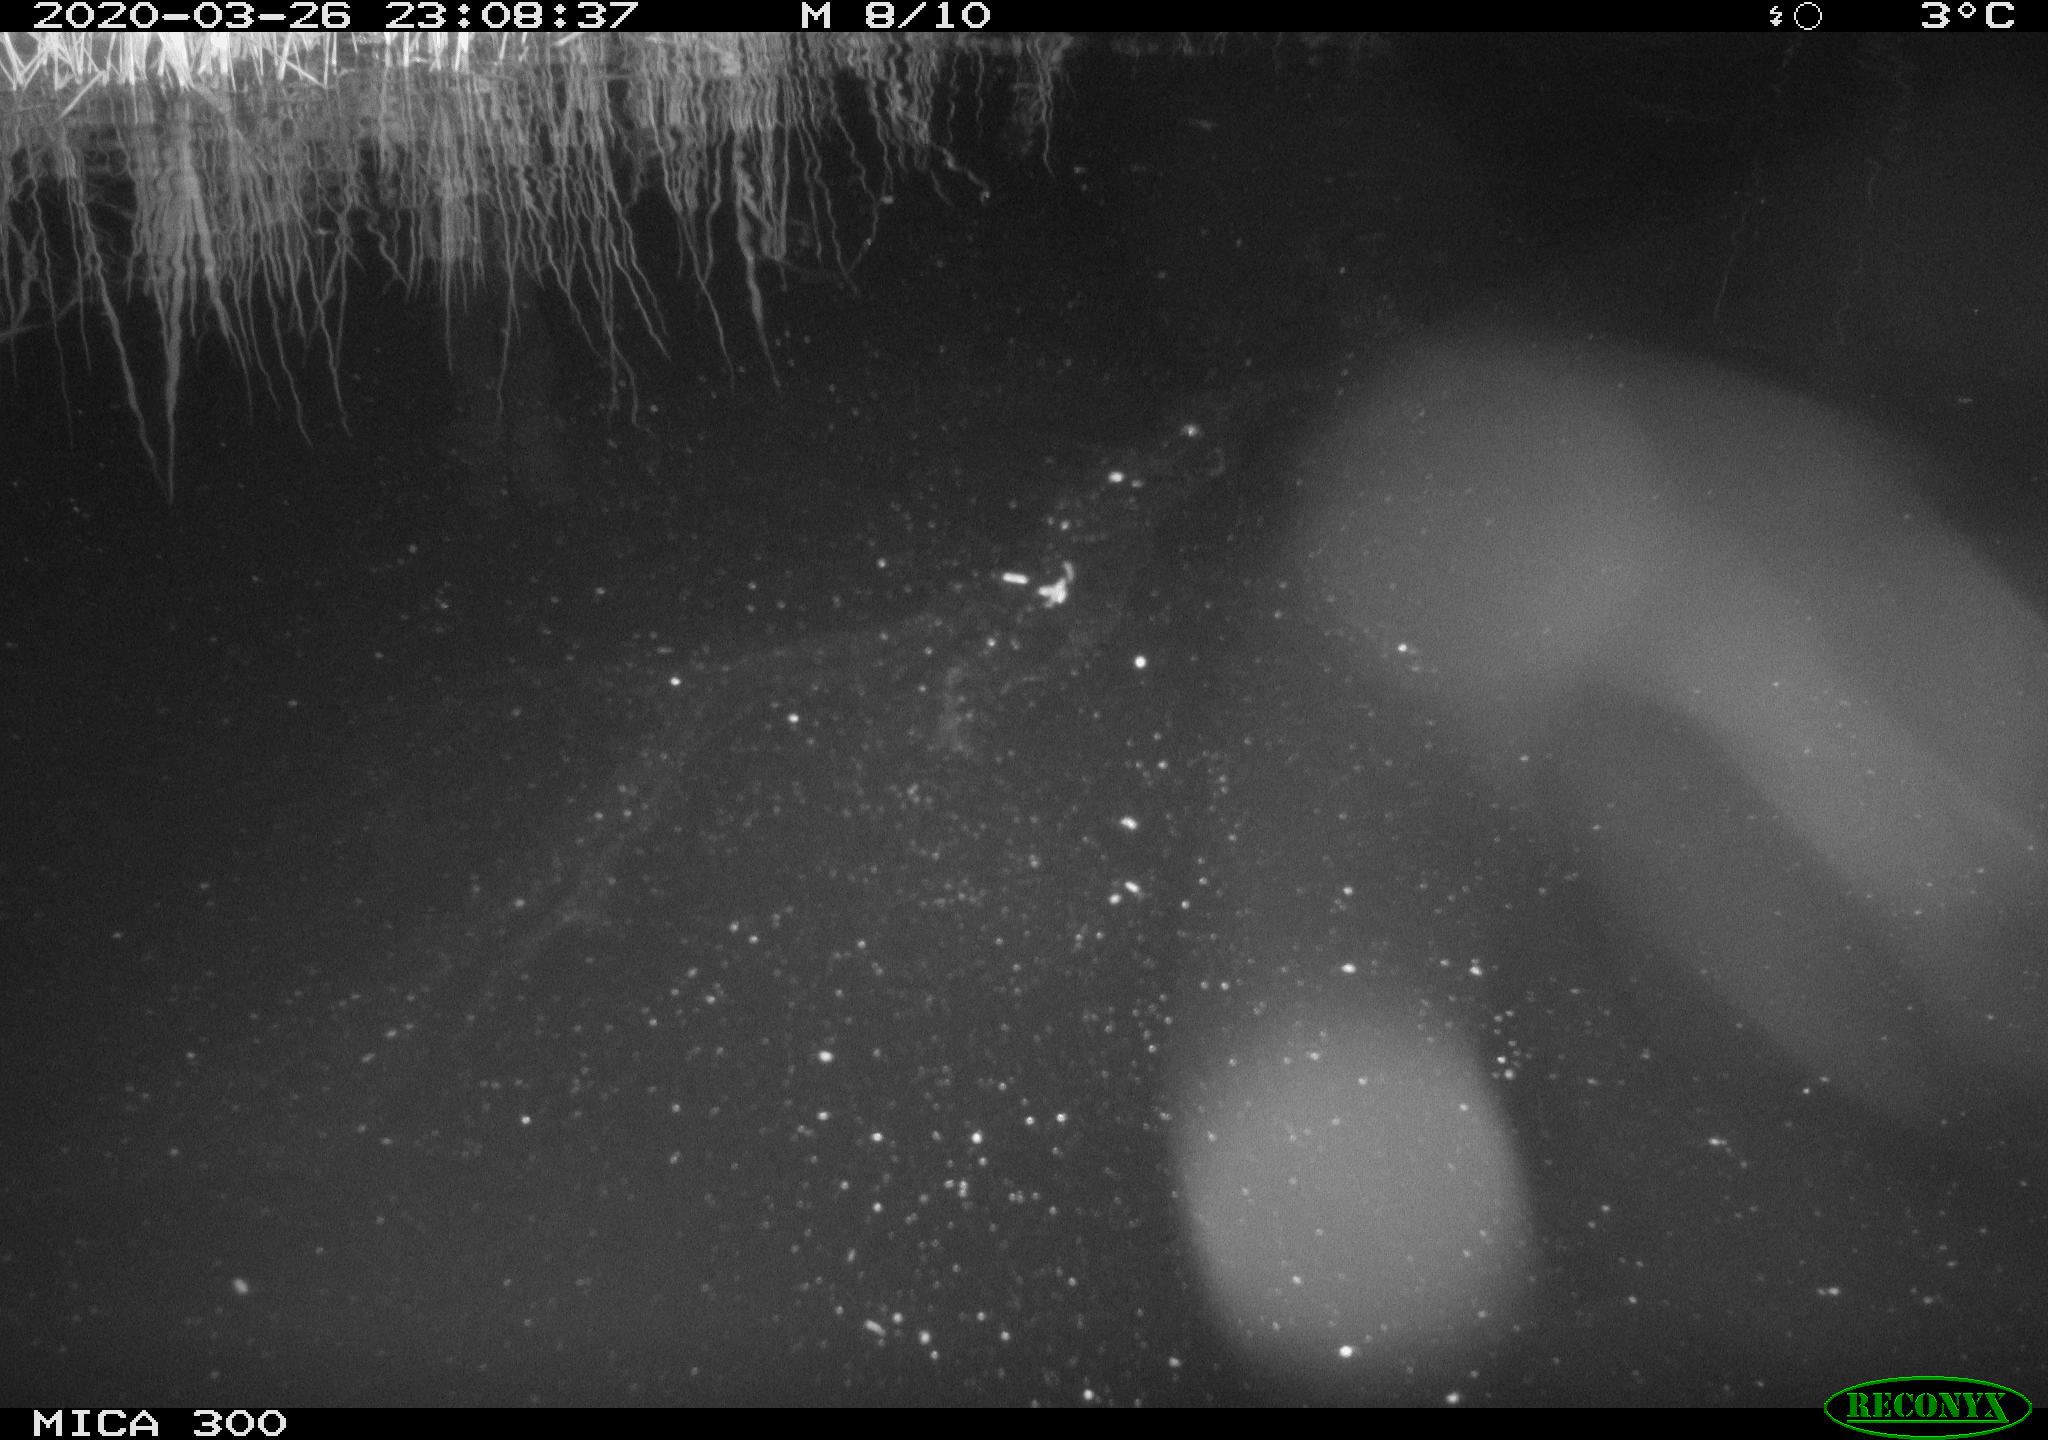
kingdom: Animalia
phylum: Chordata
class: Mammalia
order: Rodentia
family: Castoridae
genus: Castor
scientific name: Castor fiber
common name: Eurasian beaver
